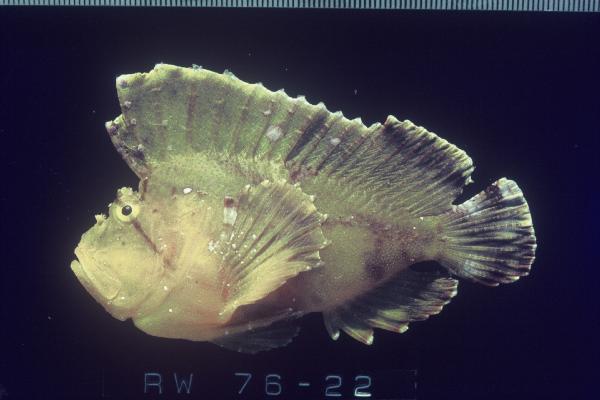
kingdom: Animalia
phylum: Chordata
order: Scorpaeniformes
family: Scorpaenidae
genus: Taenianotus
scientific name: Taenianotus triacanthus
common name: Leaf scorpionfish
